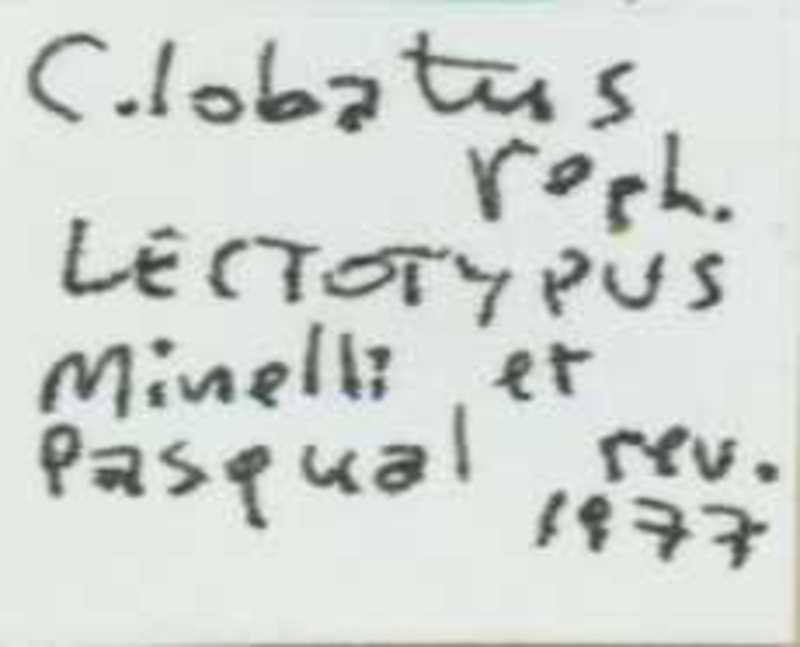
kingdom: Animalia
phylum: Arthropoda
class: Chilopoda
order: Scolopendromorpha
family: Cryptopidae
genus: Cryptops
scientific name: Cryptops lobatus
